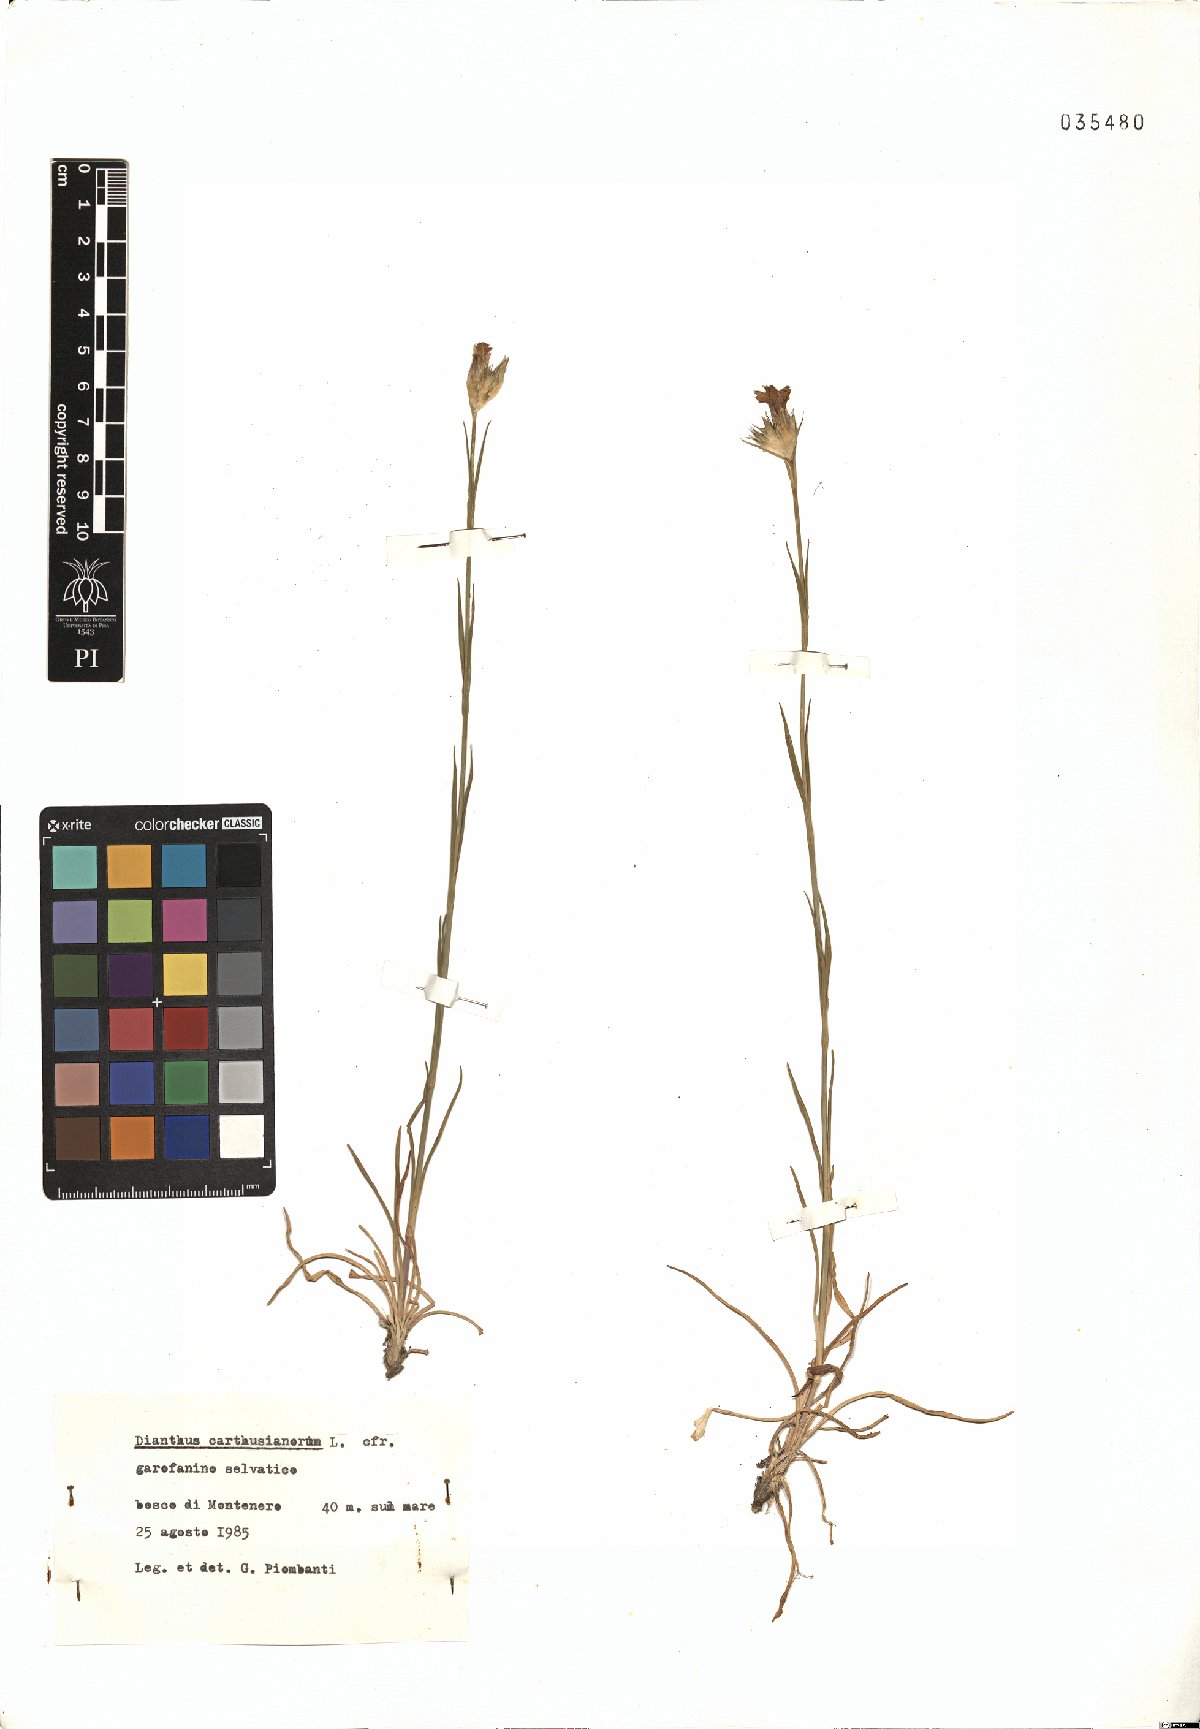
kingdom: Plantae
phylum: Tracheophyta
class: Magnoliopsida
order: Caryophyllales
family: Caryophyllaceae
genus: Dianthus
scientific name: Dianthus carthusianorum
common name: Carthusian pink
